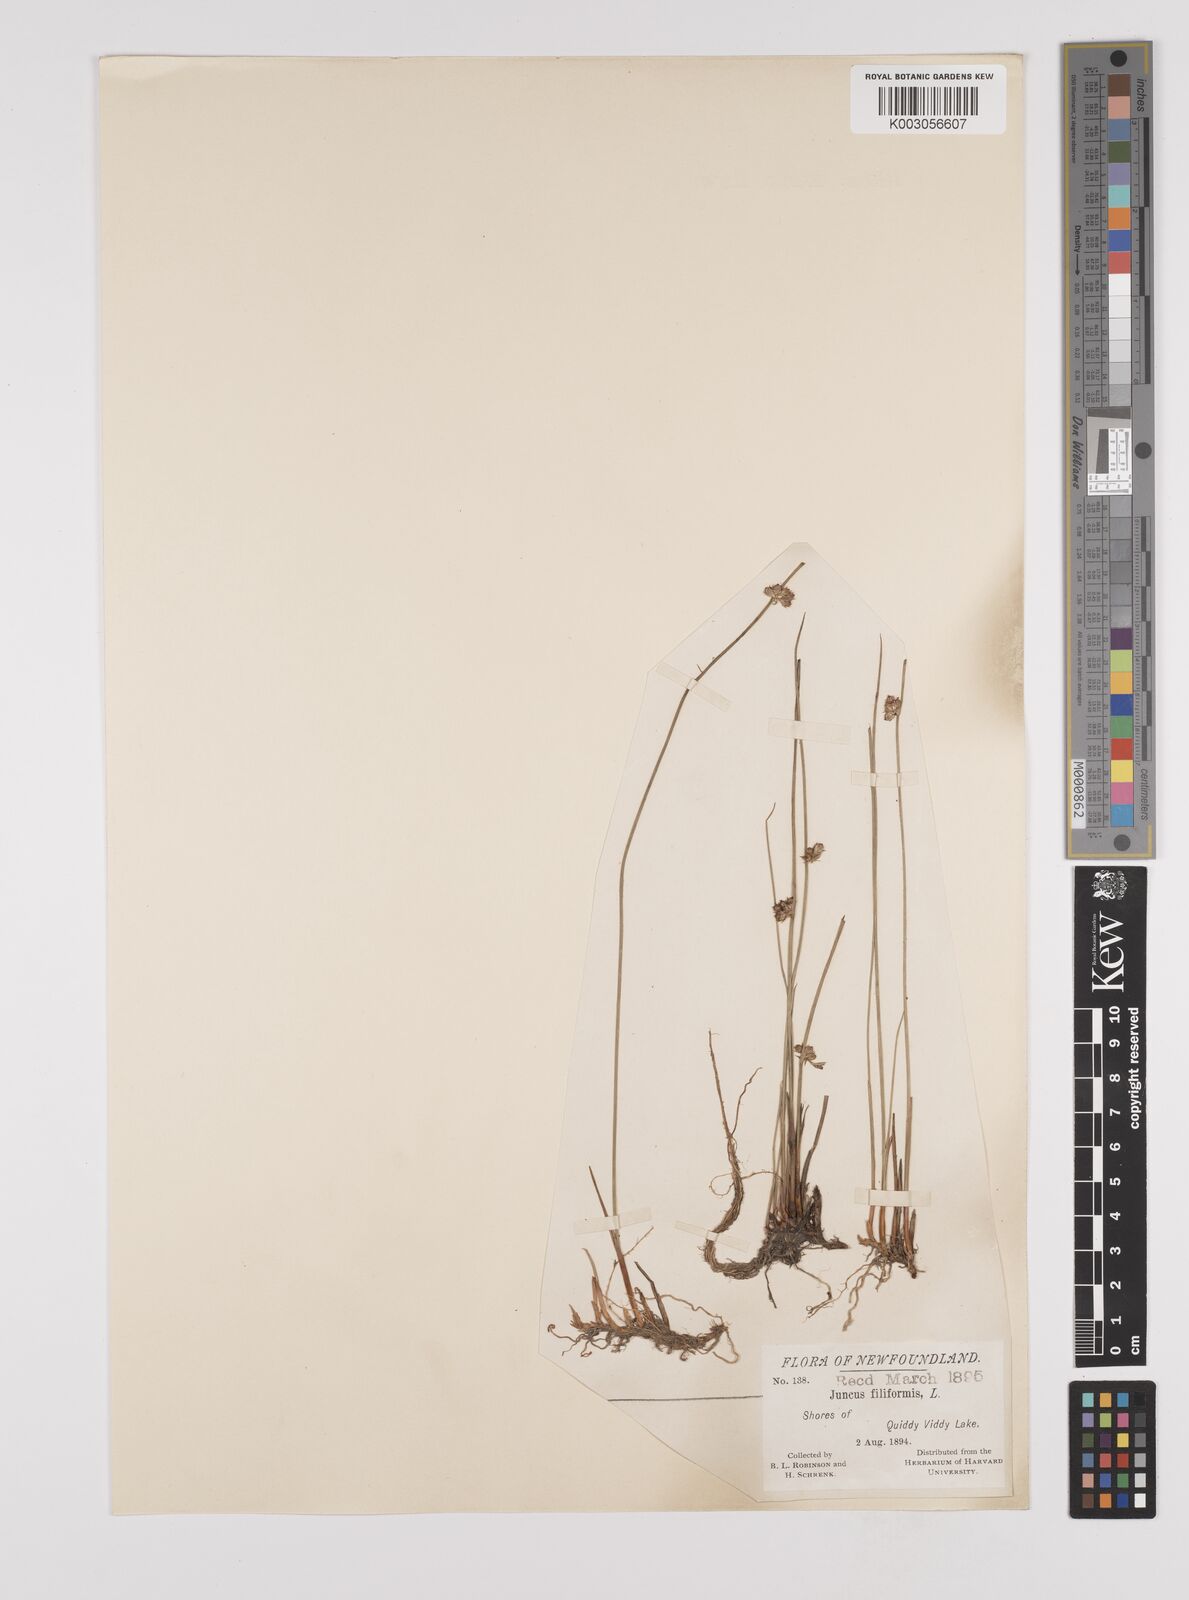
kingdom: Plantae
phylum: Tracheophyta
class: Liliopsida
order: Poales
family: Juncaceae
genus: Juncus
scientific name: Juncus filiformis
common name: Thread rush
